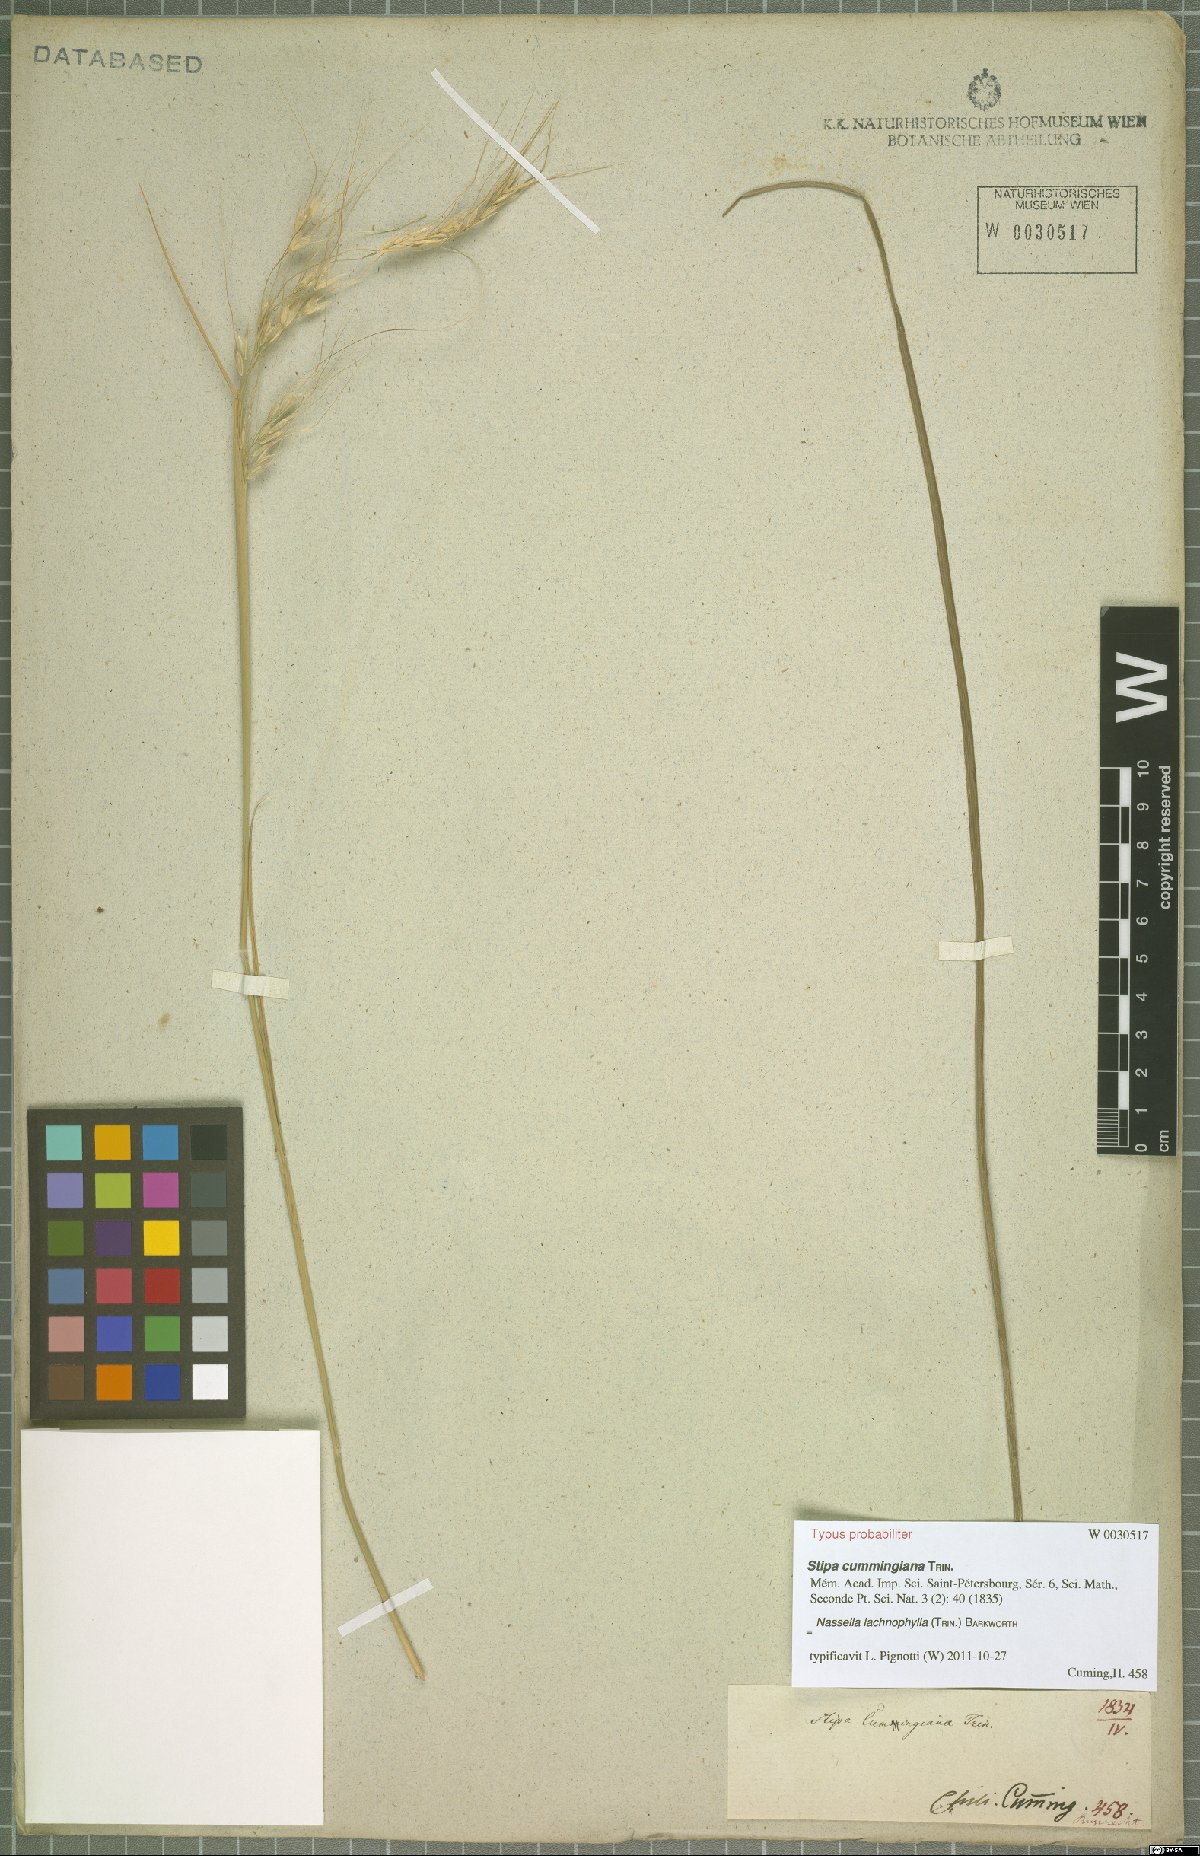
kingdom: Plantae
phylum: Tracheophyta
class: Liliopsida
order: Poales
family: Poaceae
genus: Nassella
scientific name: Nassella lachnophylla
